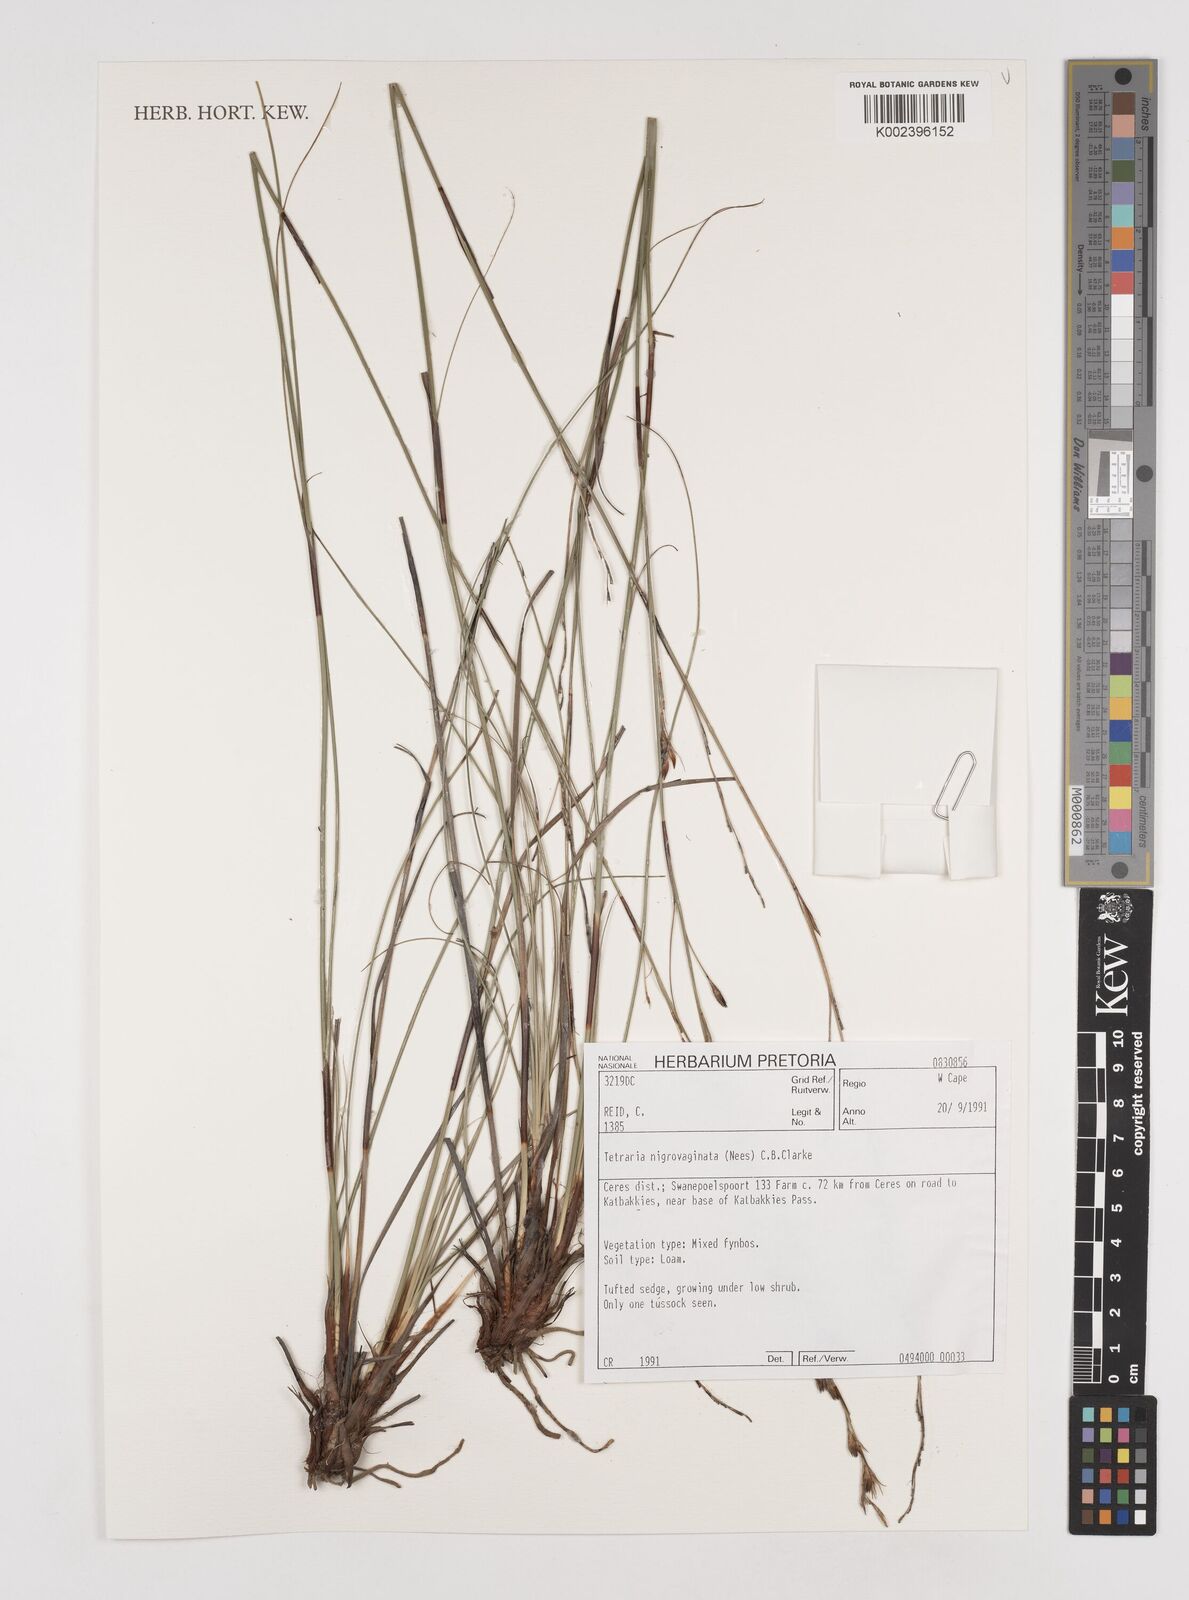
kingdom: Plantae
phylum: Tracheophyta
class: Liliopsida
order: Poales
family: Cyperaceae
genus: Tetraria
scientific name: Tetraria nigrovaginata
